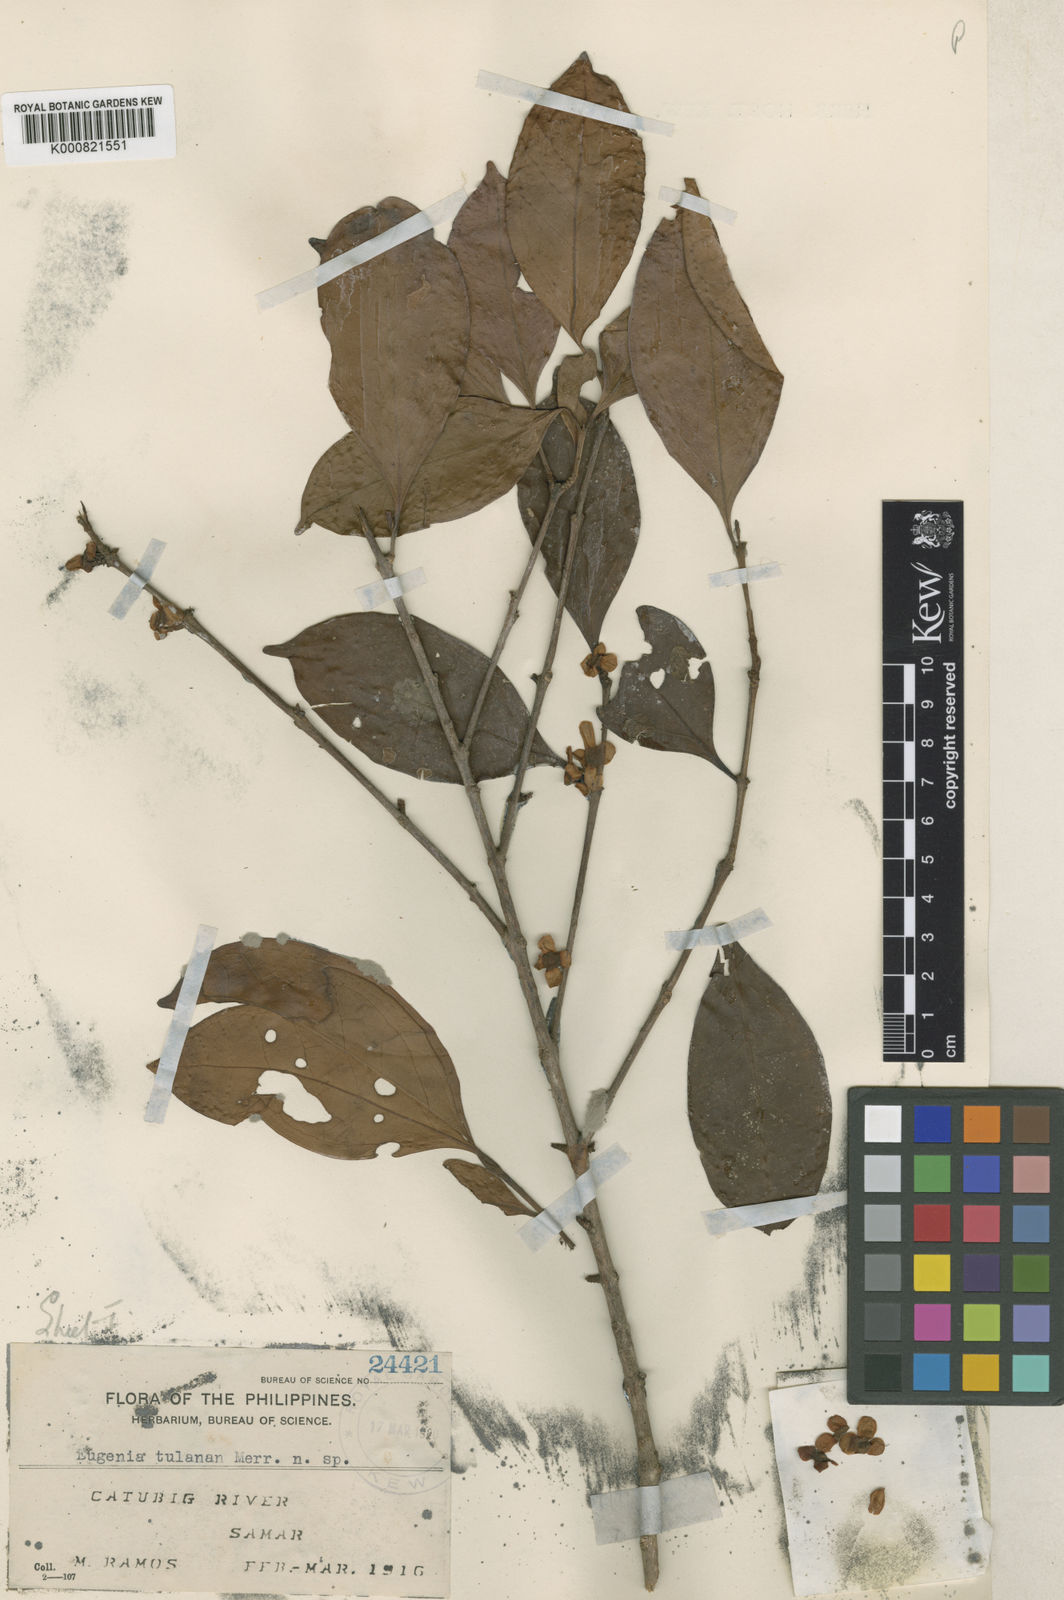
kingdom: Plantae
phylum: Tracheophyta
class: Magnoliopsida
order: Myrtales
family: Myrtaceae
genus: Eugenia
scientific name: Eugenia tulanan
